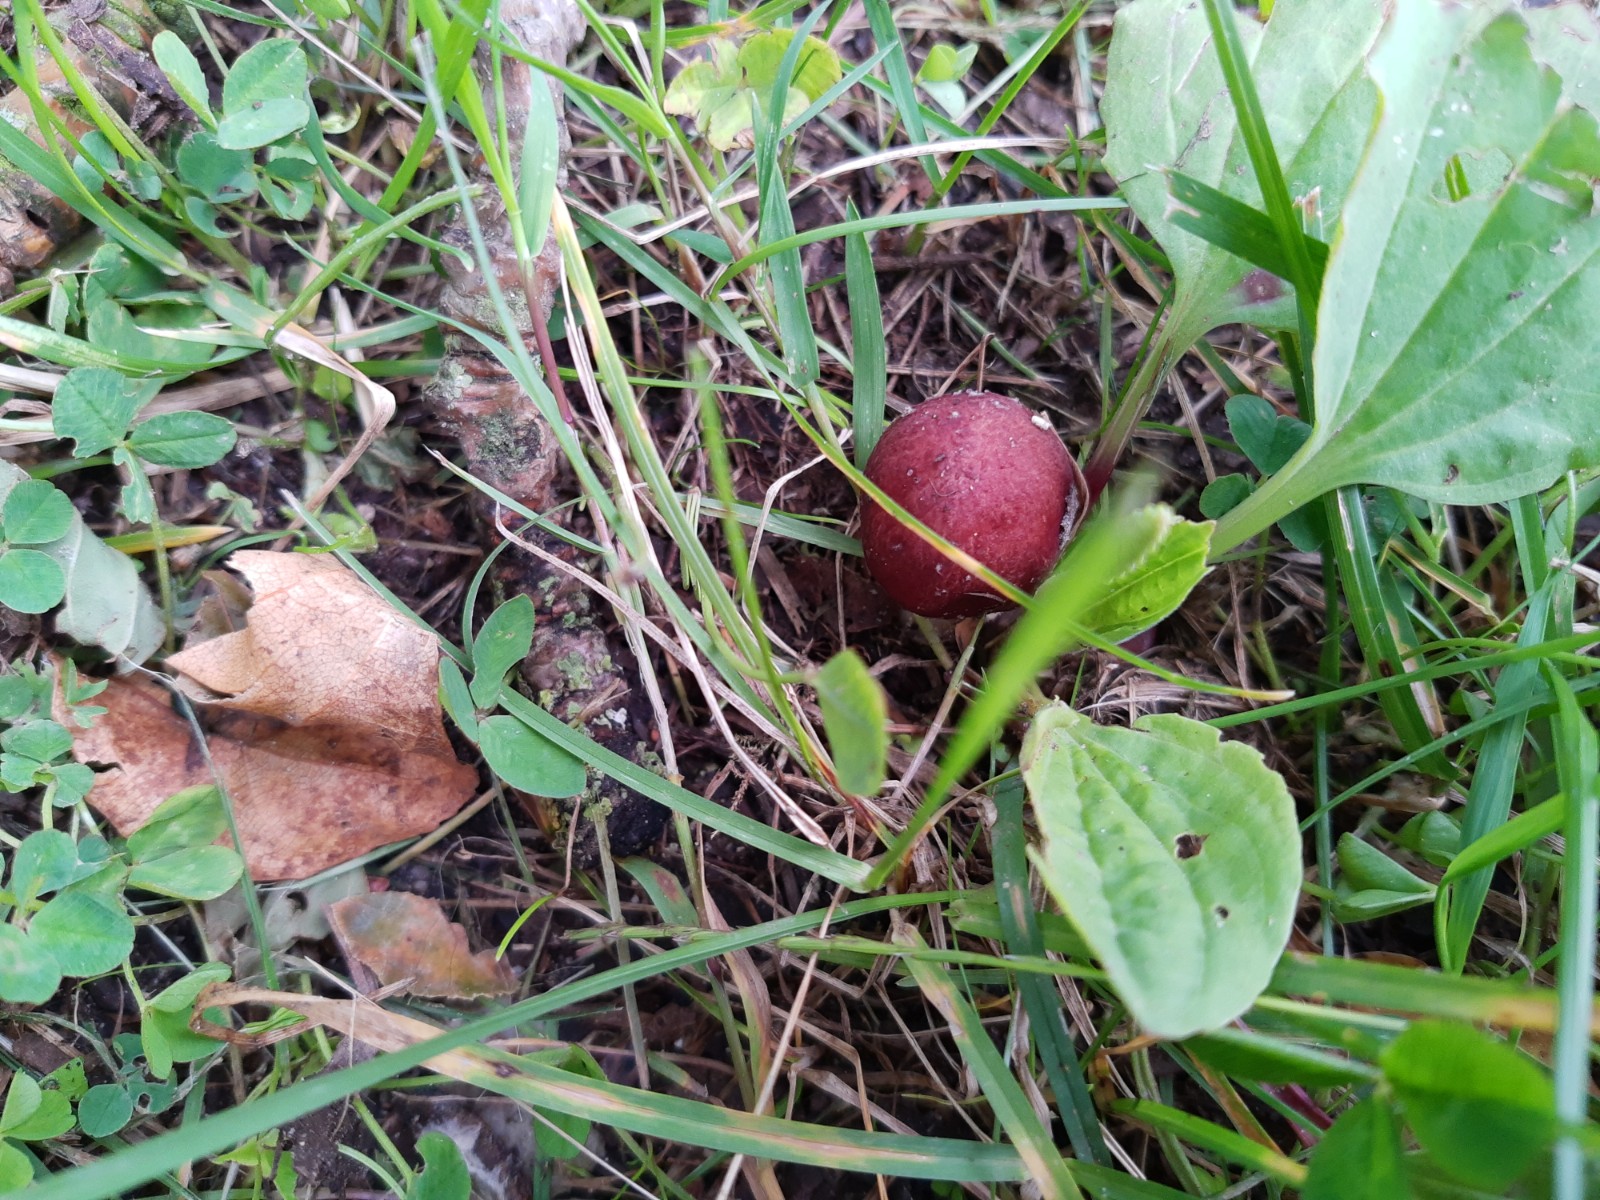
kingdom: Fungi
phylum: Basidiomycota
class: Agaricomycetes
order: Agaricales
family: Strophariaceae
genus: Stropharia
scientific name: Stropharia rugosoannulata
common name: rødbrun bredblad
